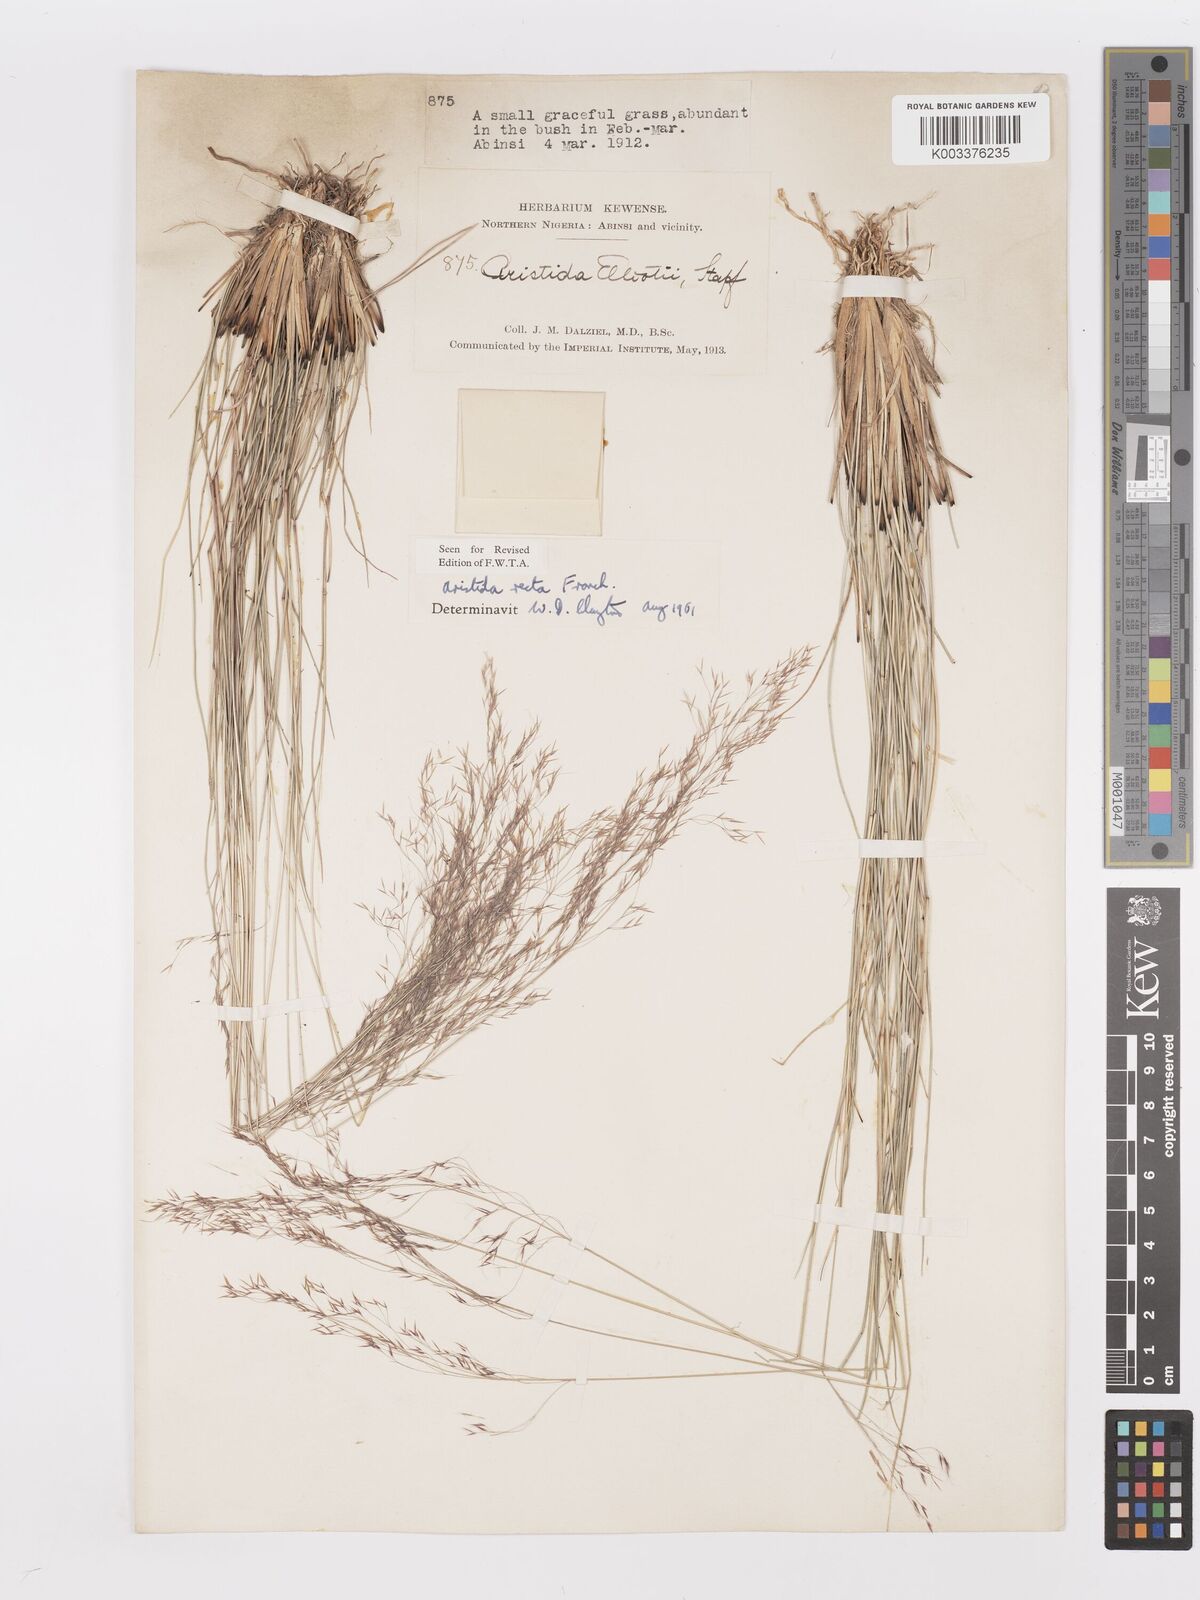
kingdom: Plantae
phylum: Tracheophyta
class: Liliopsida
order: Poales
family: Poaceae
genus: Aristida
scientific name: Aristida recta
